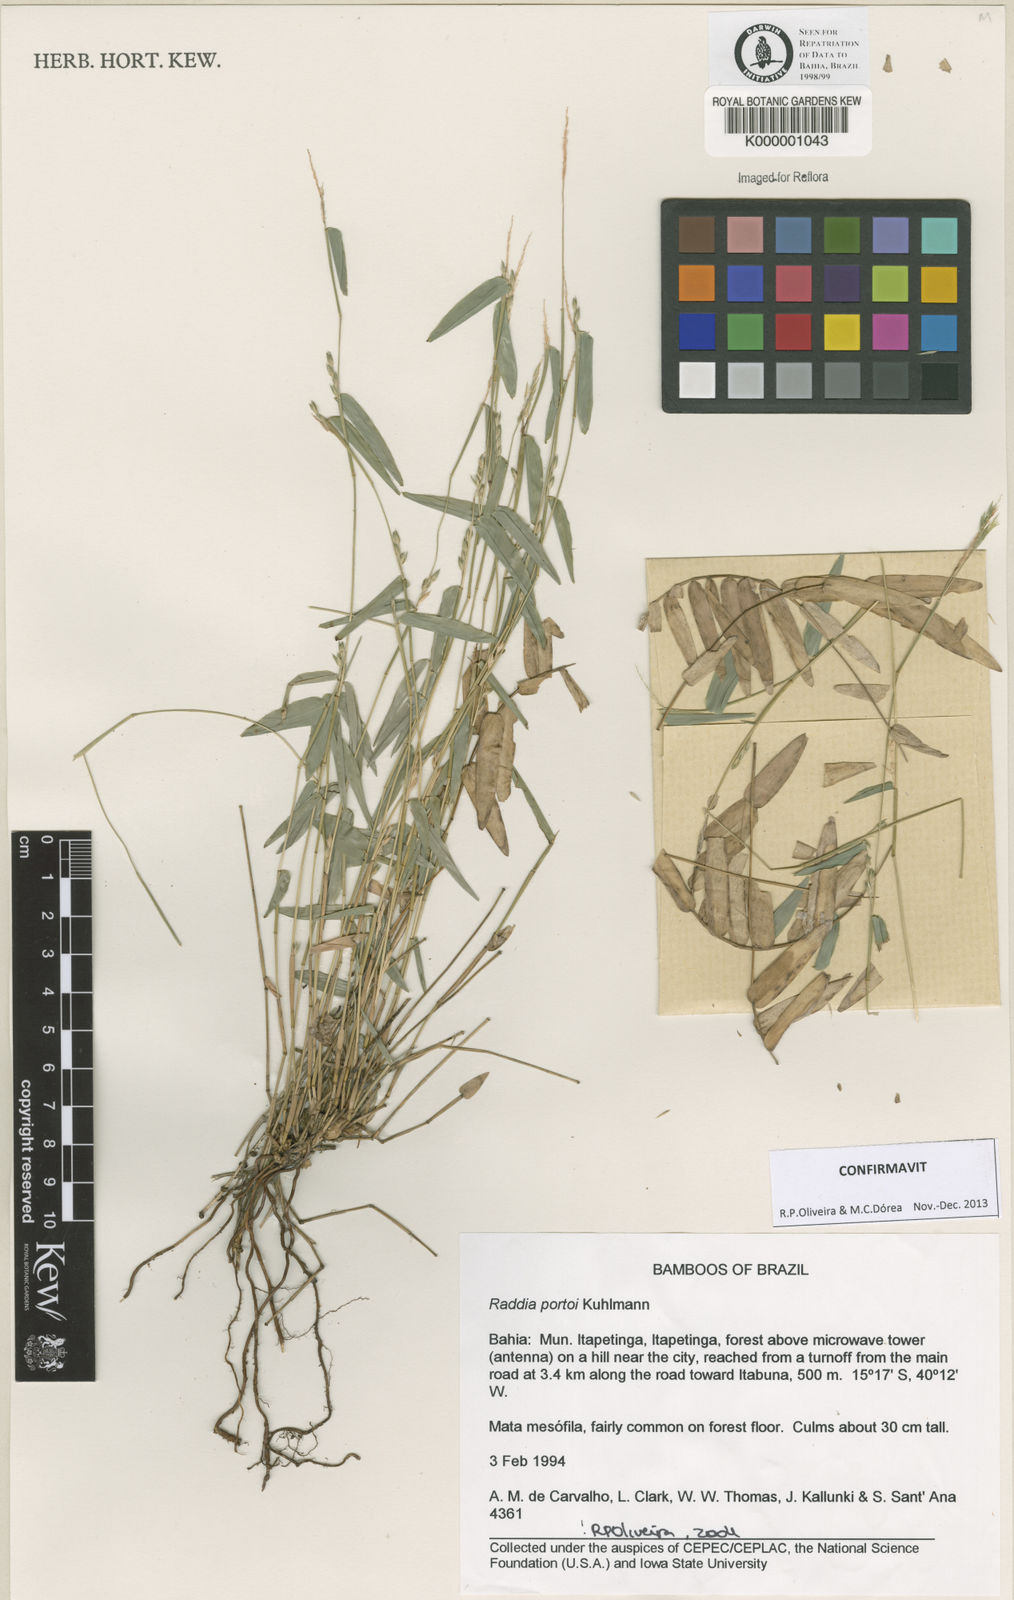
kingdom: Plantae
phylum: Tracheophyta
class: Liliopsida
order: Poales
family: Poaceae
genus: Raddia
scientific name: Raddia portoi
